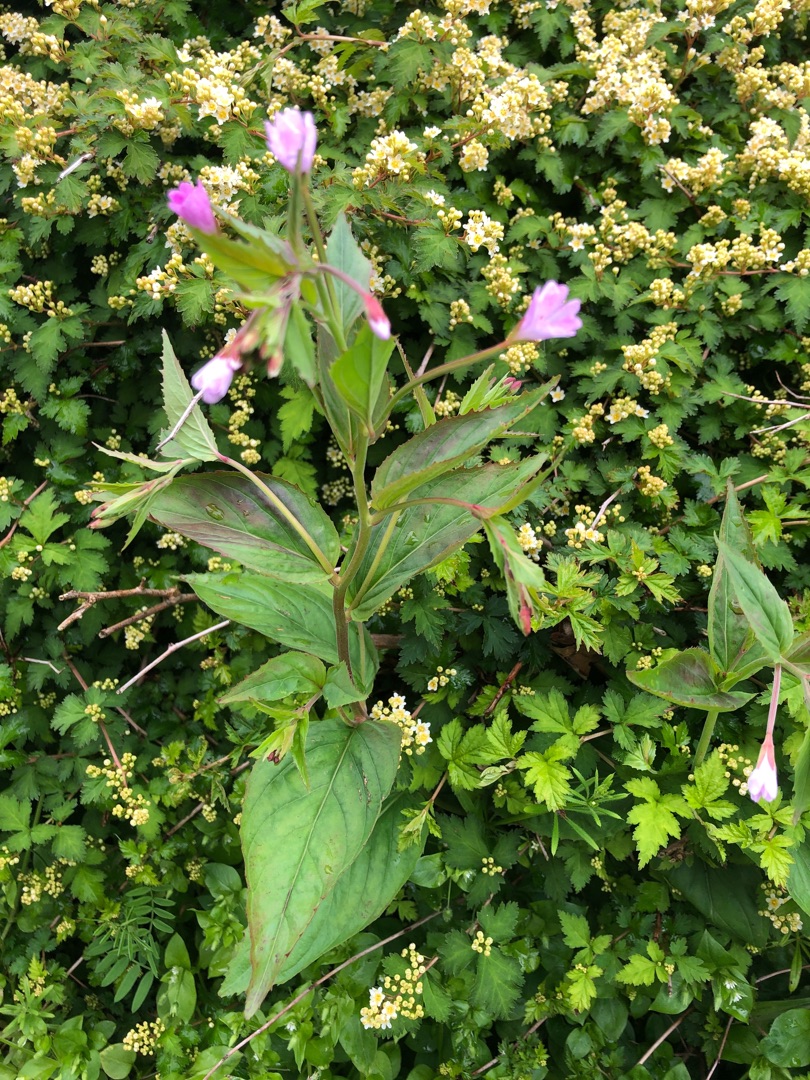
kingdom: Plantae
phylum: Tracheophyta
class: Magnoliopsida
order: Myrtales
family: Onagraceae
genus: Epilobium
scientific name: Epilobium montanum
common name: Glat dueurt
